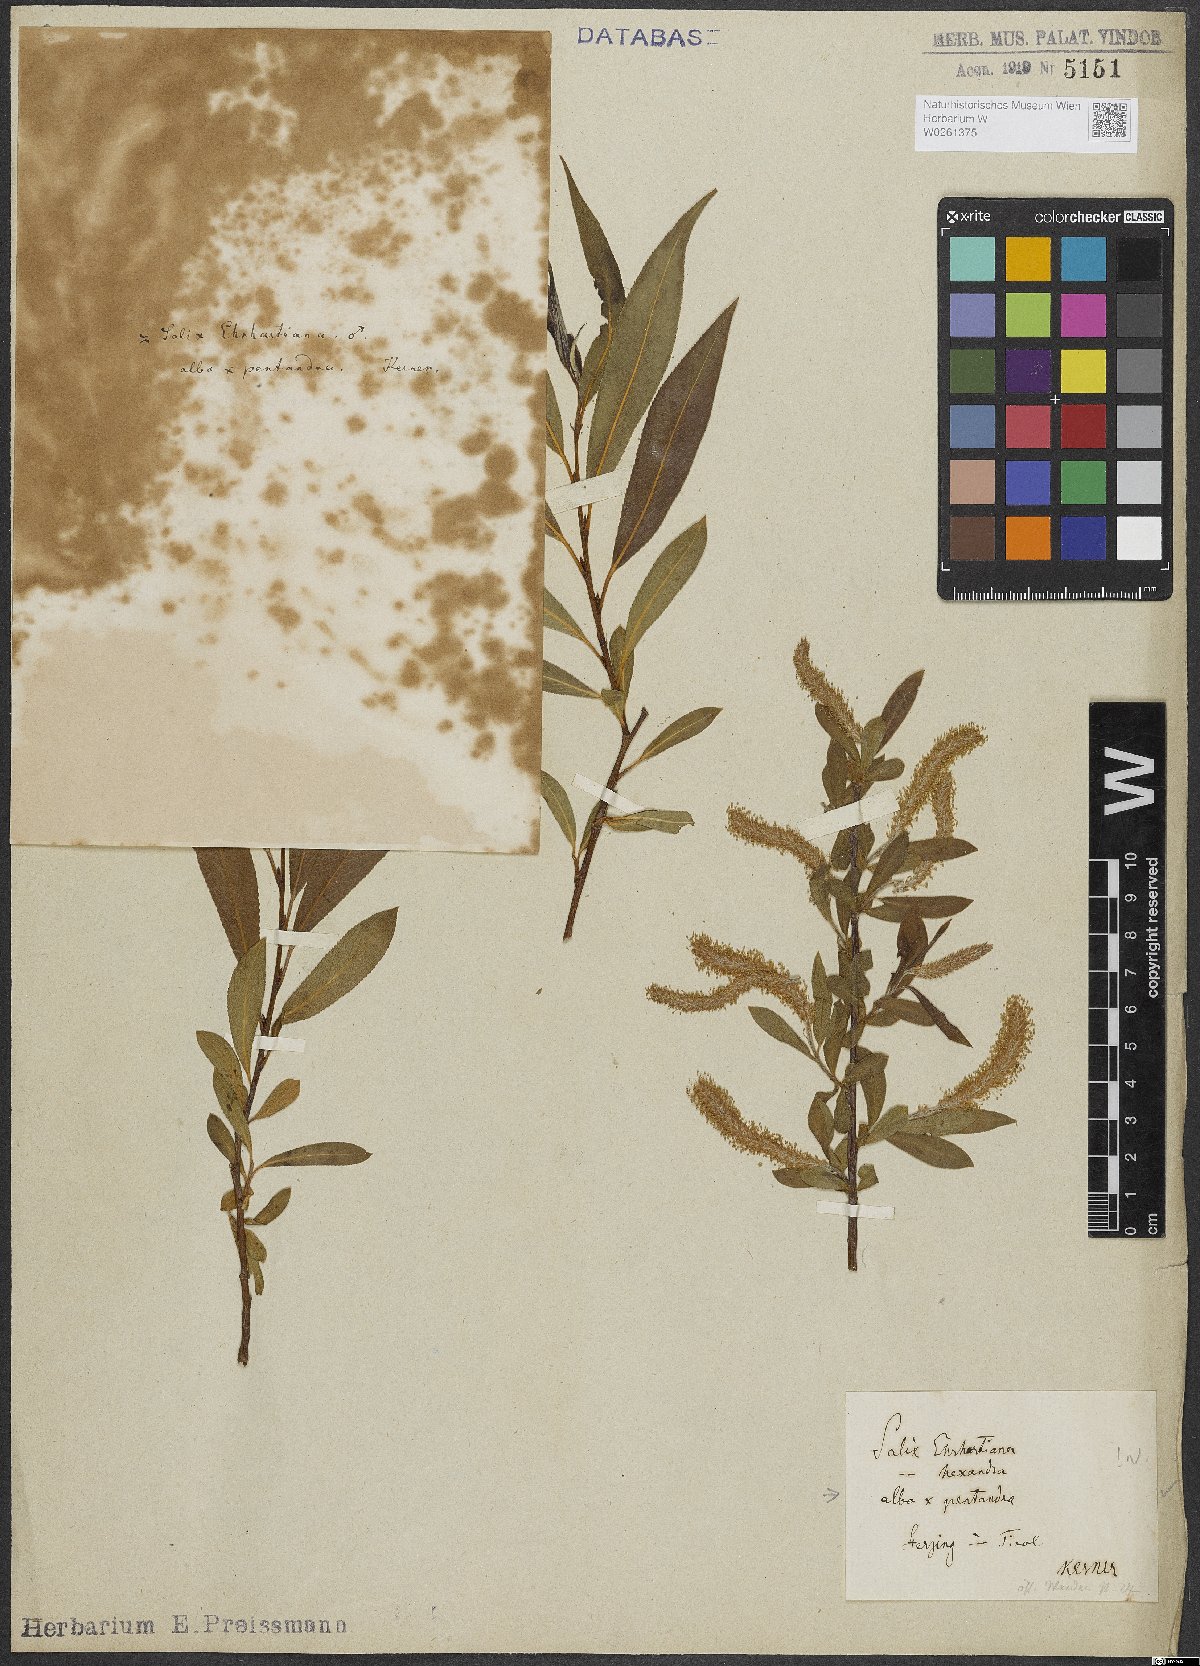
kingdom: Plantae
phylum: Tracheophyta
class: Magnoliopsida
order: Malpighiales
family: Salicaceae
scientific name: Salicaceae
